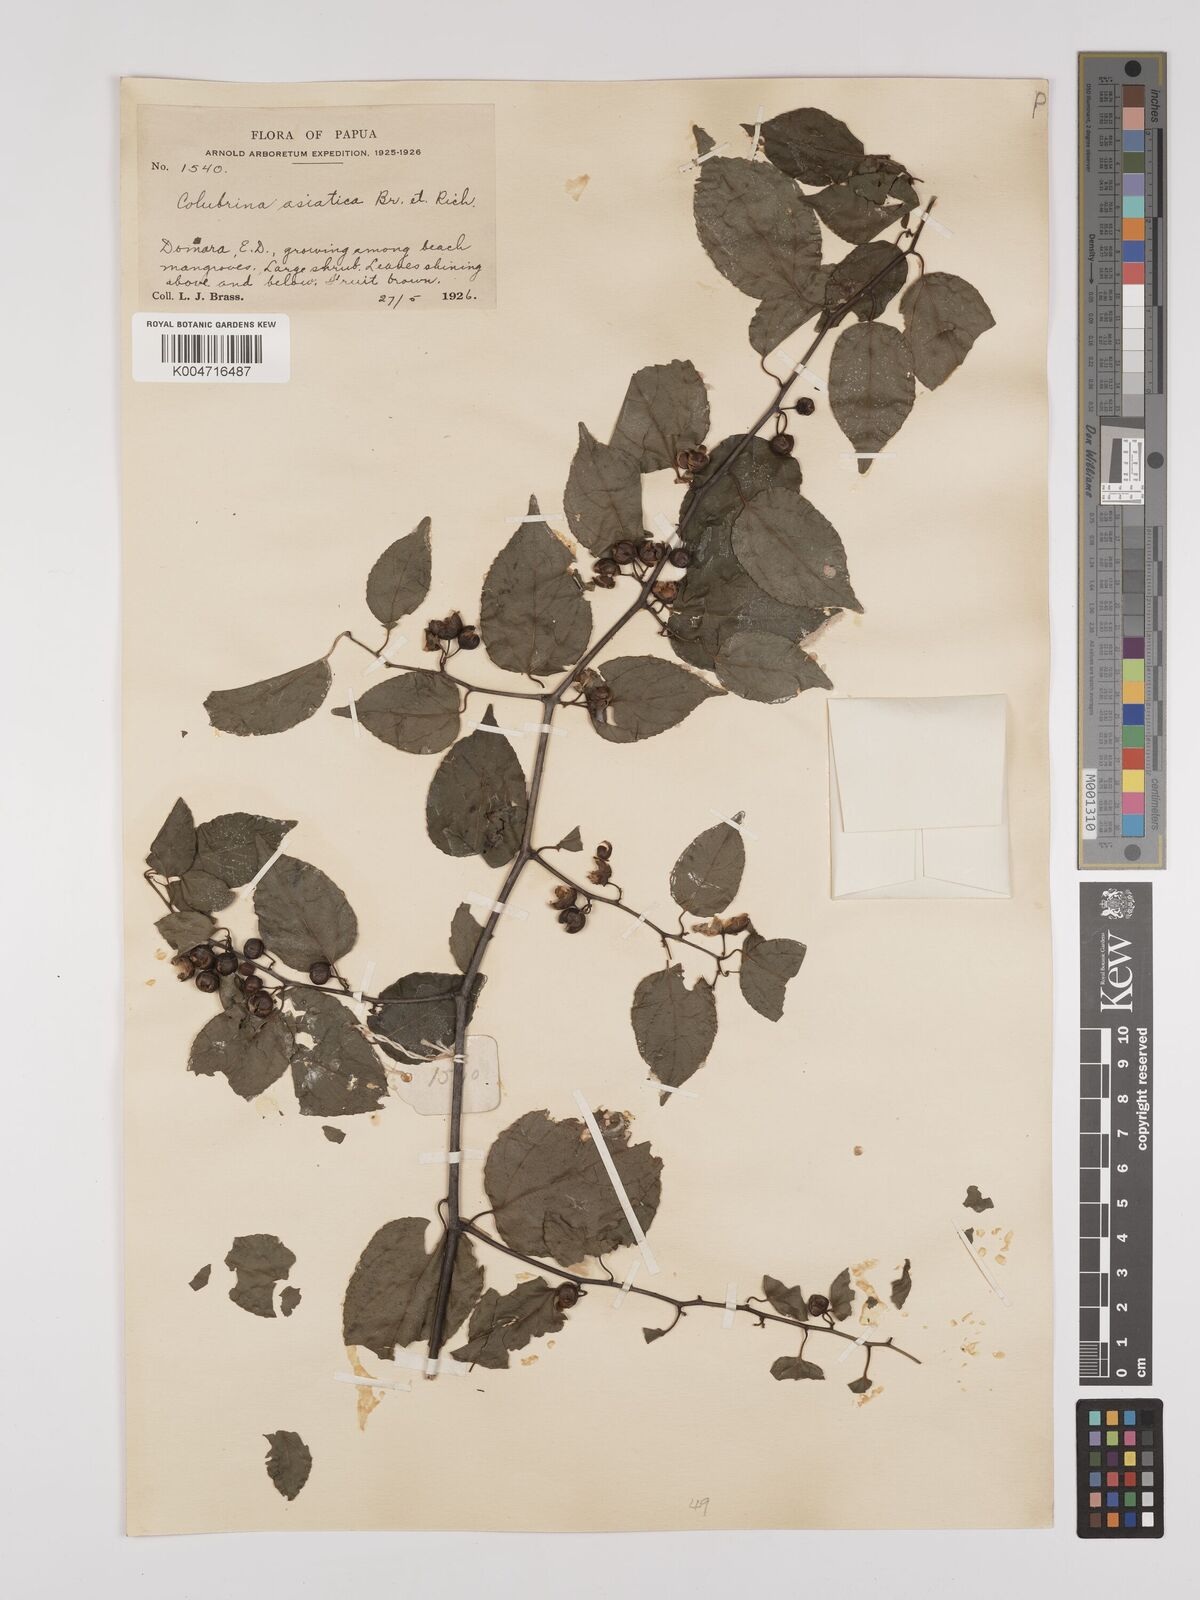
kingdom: Plantae
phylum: Tracheophyta
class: Magnoliopsida
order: Rosales
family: Rhamnaceae
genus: Colubrina
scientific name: Colubrina asiatica
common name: Asian nakedwood
